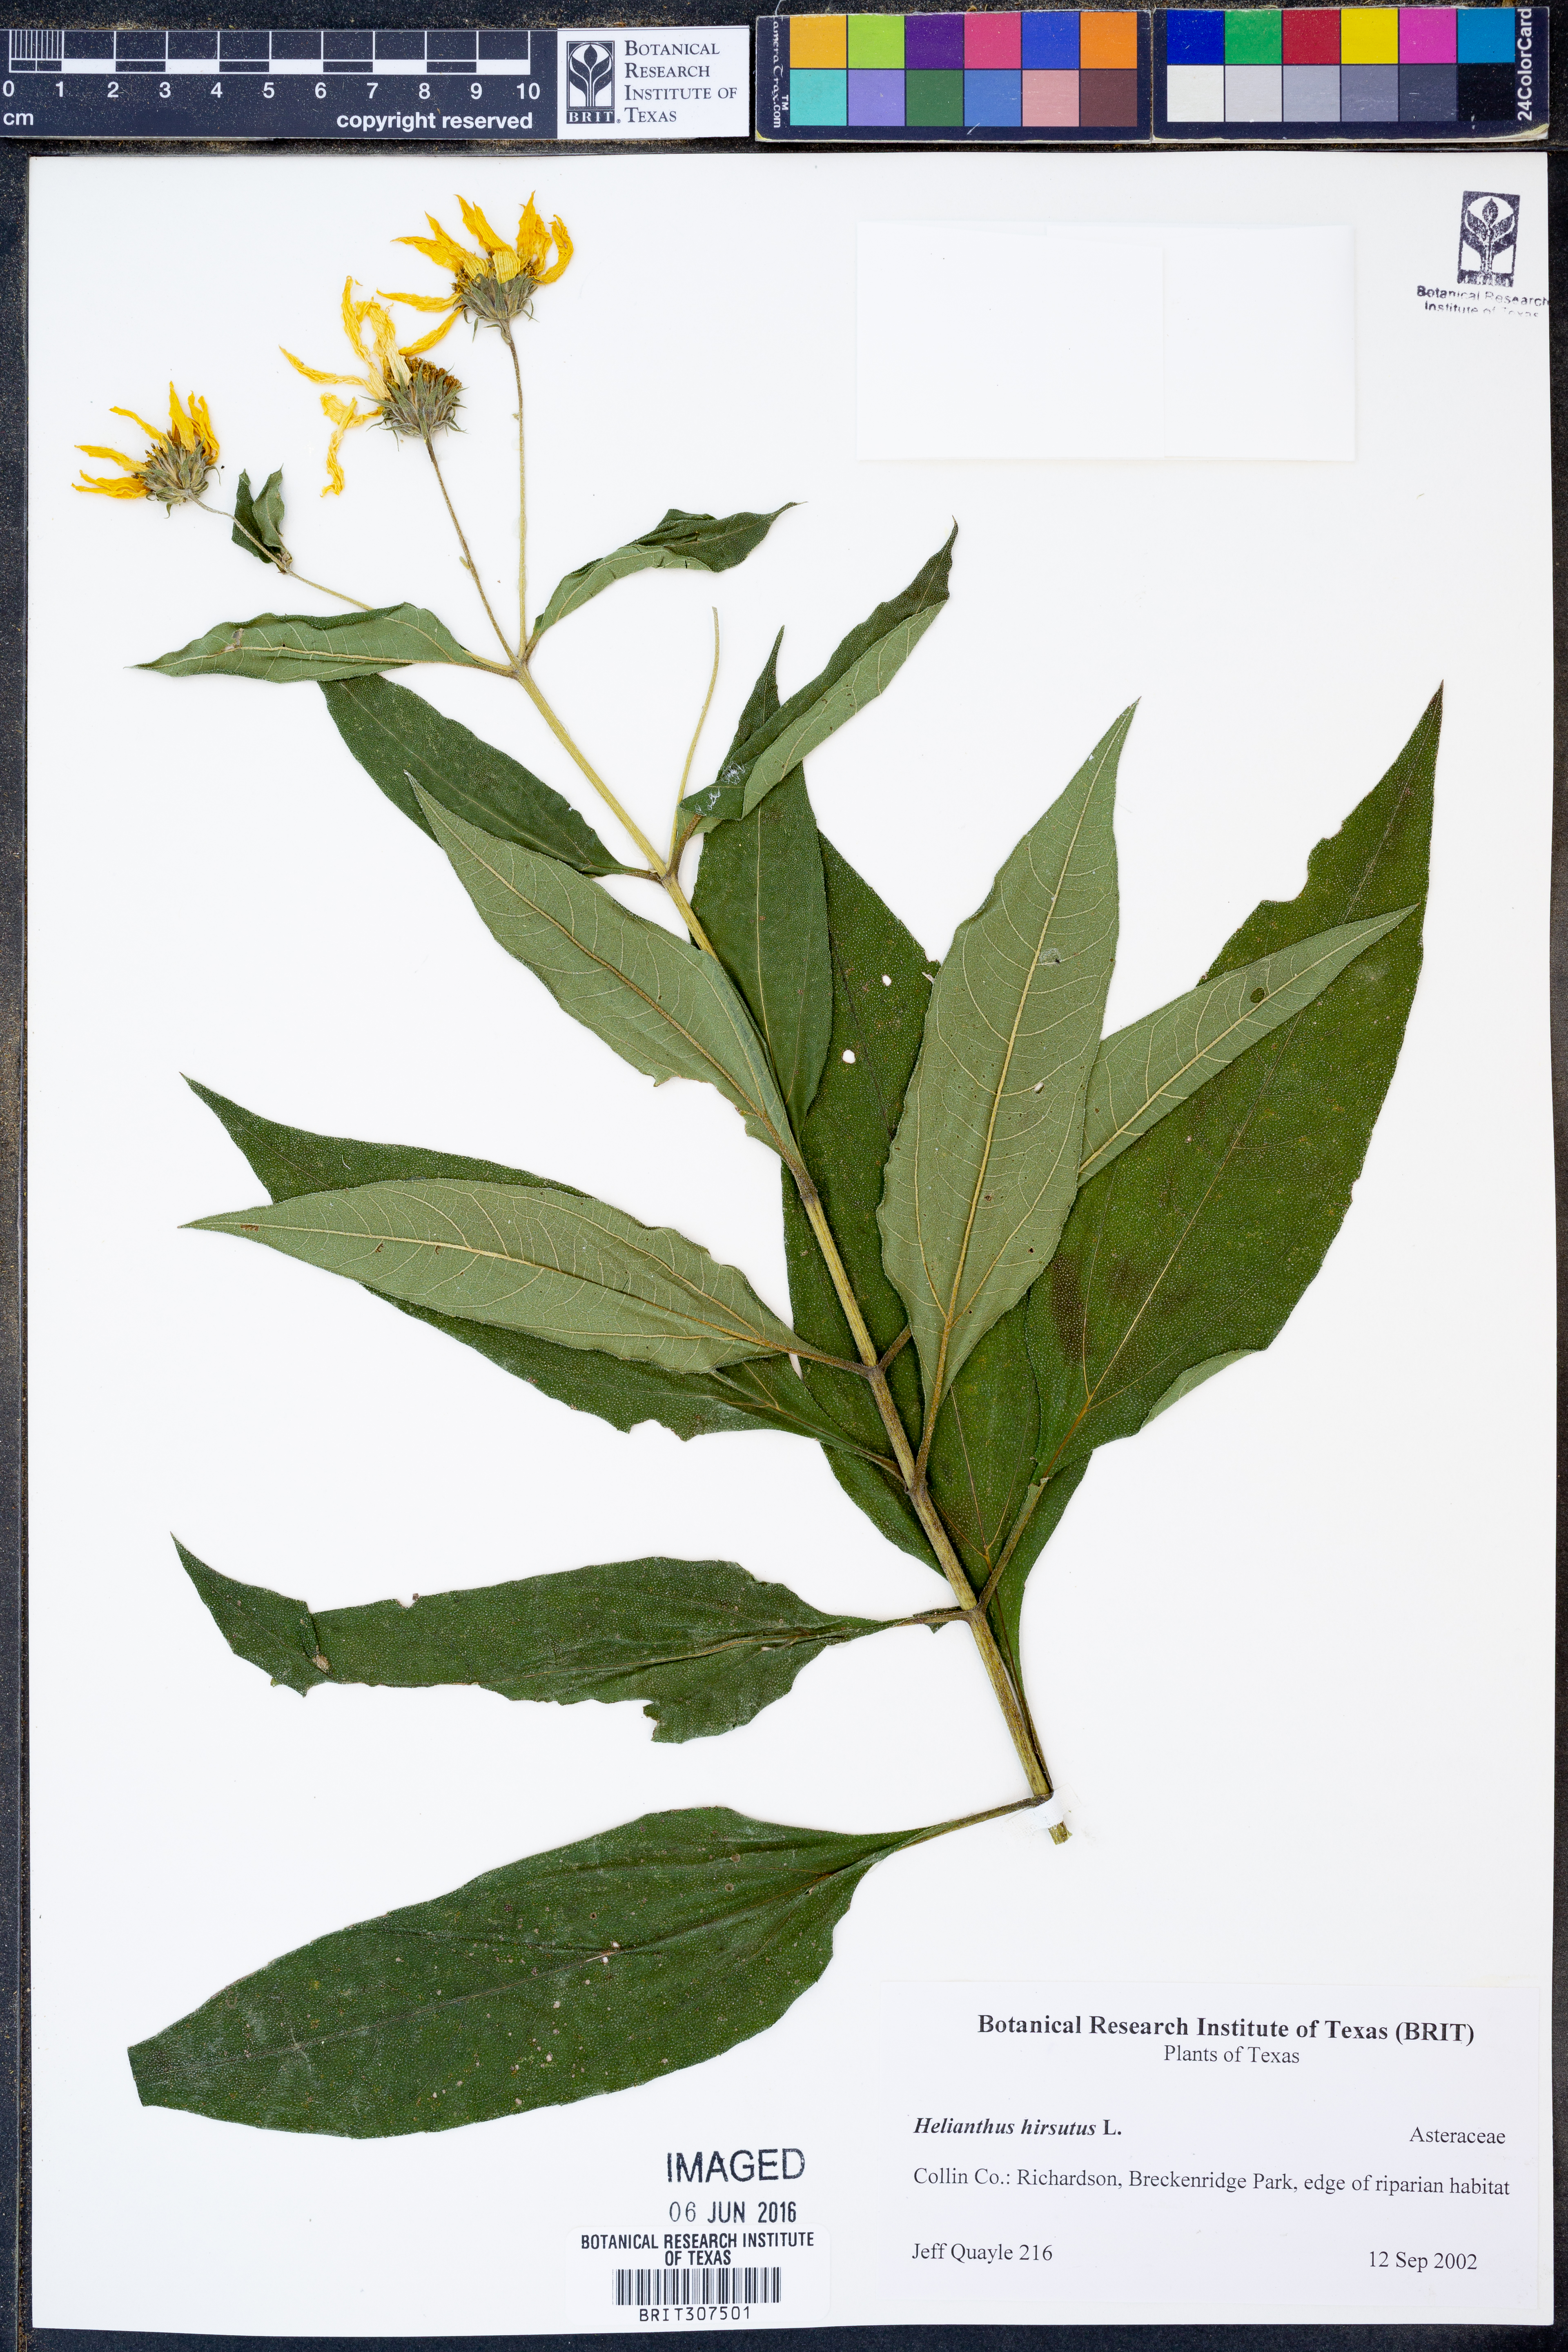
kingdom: Plantae
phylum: Tracheophyta
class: Magnoliopsida
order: Asterales
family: Asteraceae
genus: Helianthus
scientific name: Helianthus hirsutus
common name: Hairy sunflower
